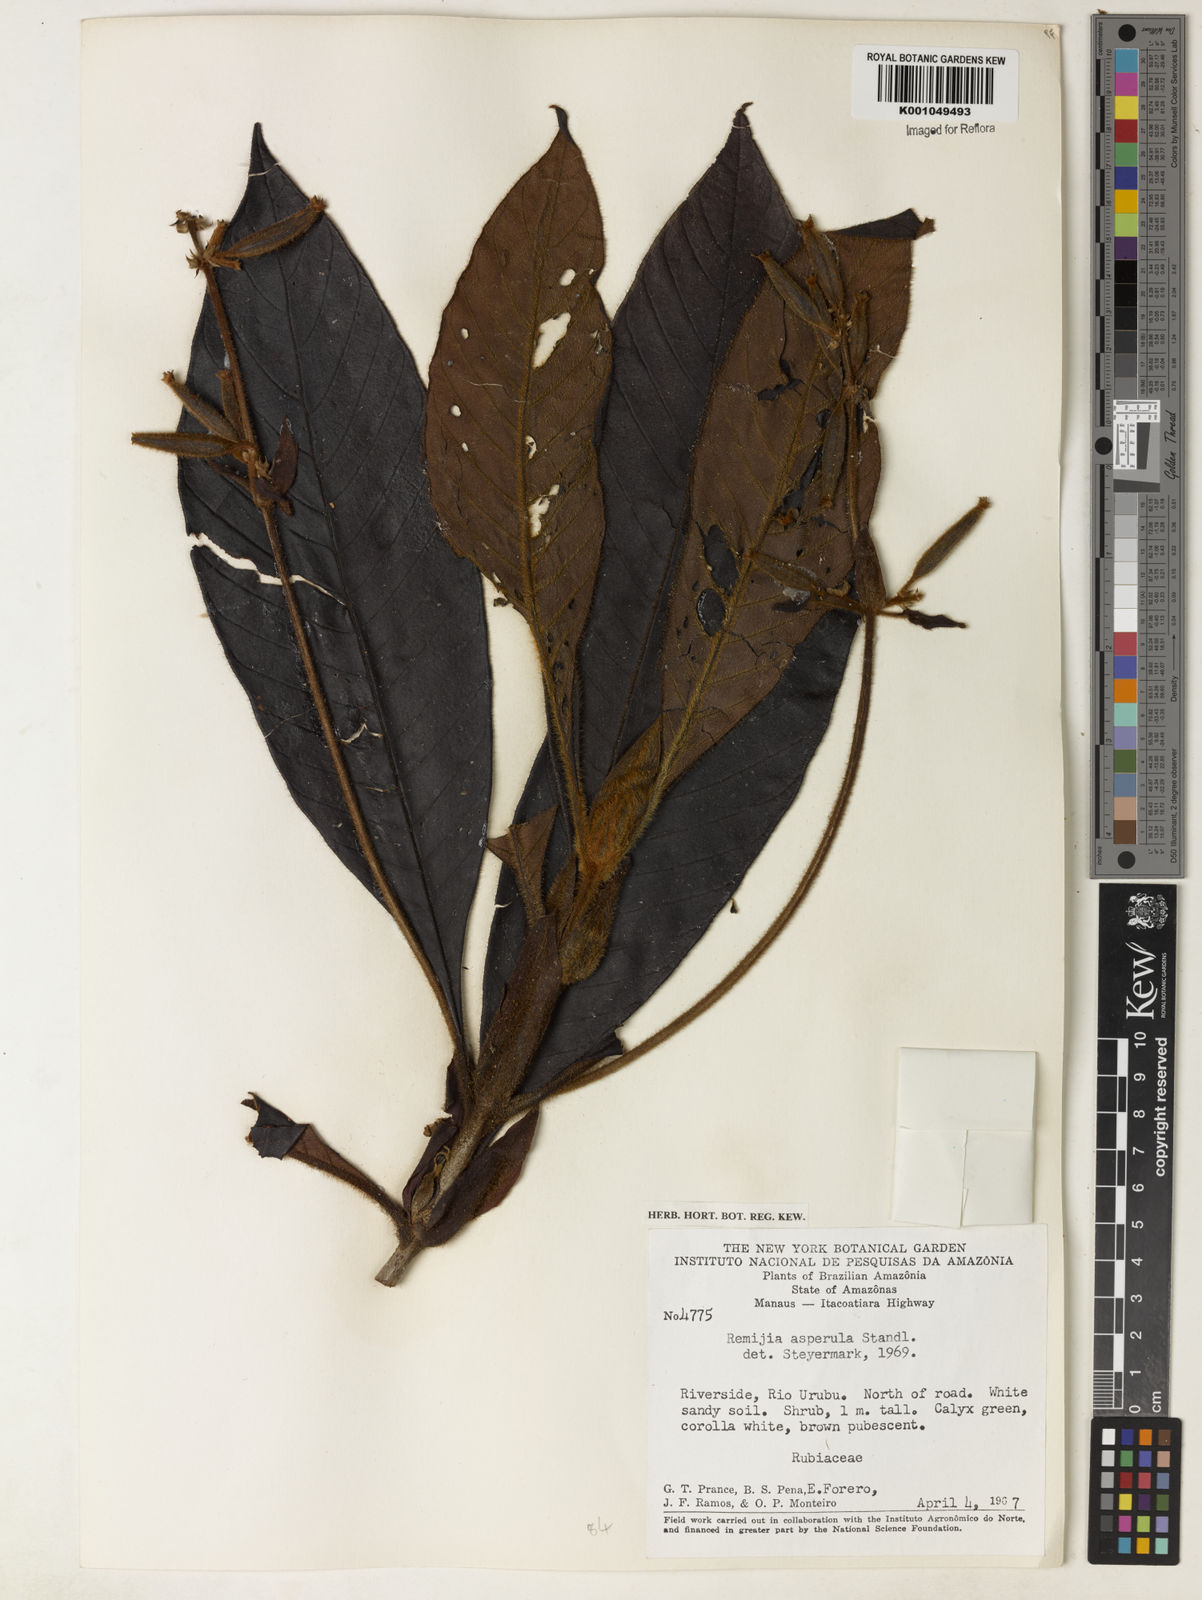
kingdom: Plantae
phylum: Tracheophyta
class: Magnoliopsida
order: Gentianales
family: Rubiaceae
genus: Remijia
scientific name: Remijia asperula
